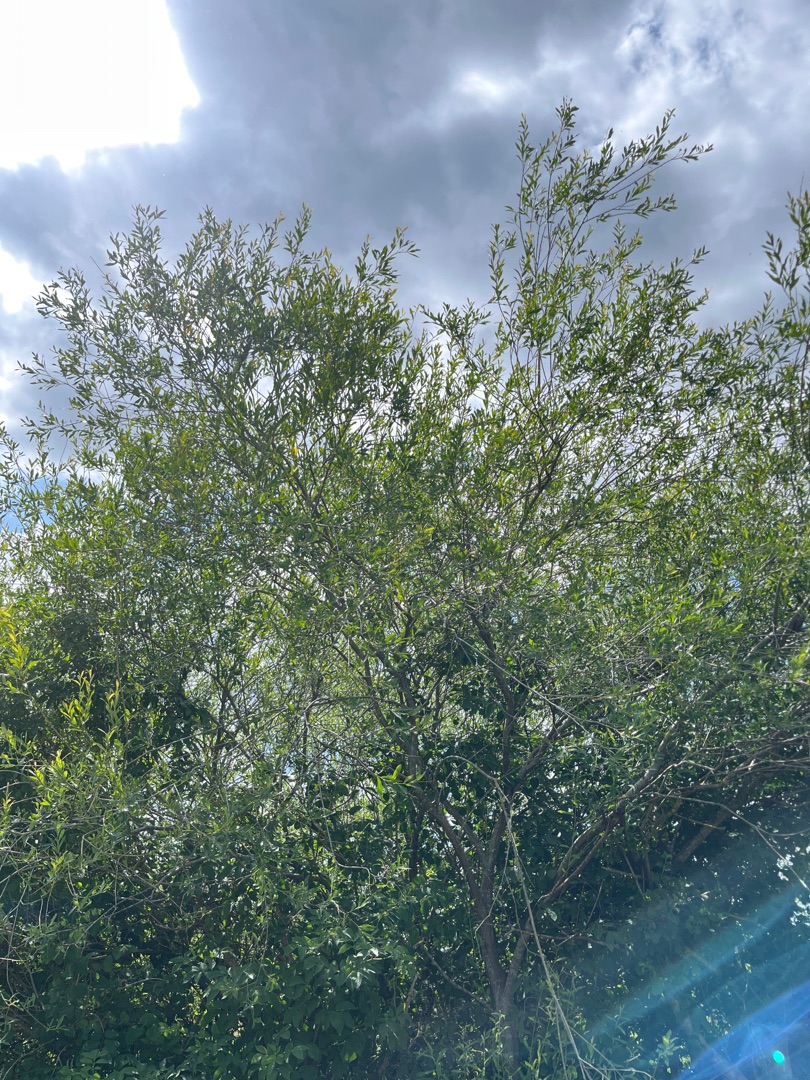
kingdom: Plantae
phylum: Tracheophyta
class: Magnoliopsida
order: Malpighiales
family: Salicaceae
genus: Salix
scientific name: Salix
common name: Pileslægten
